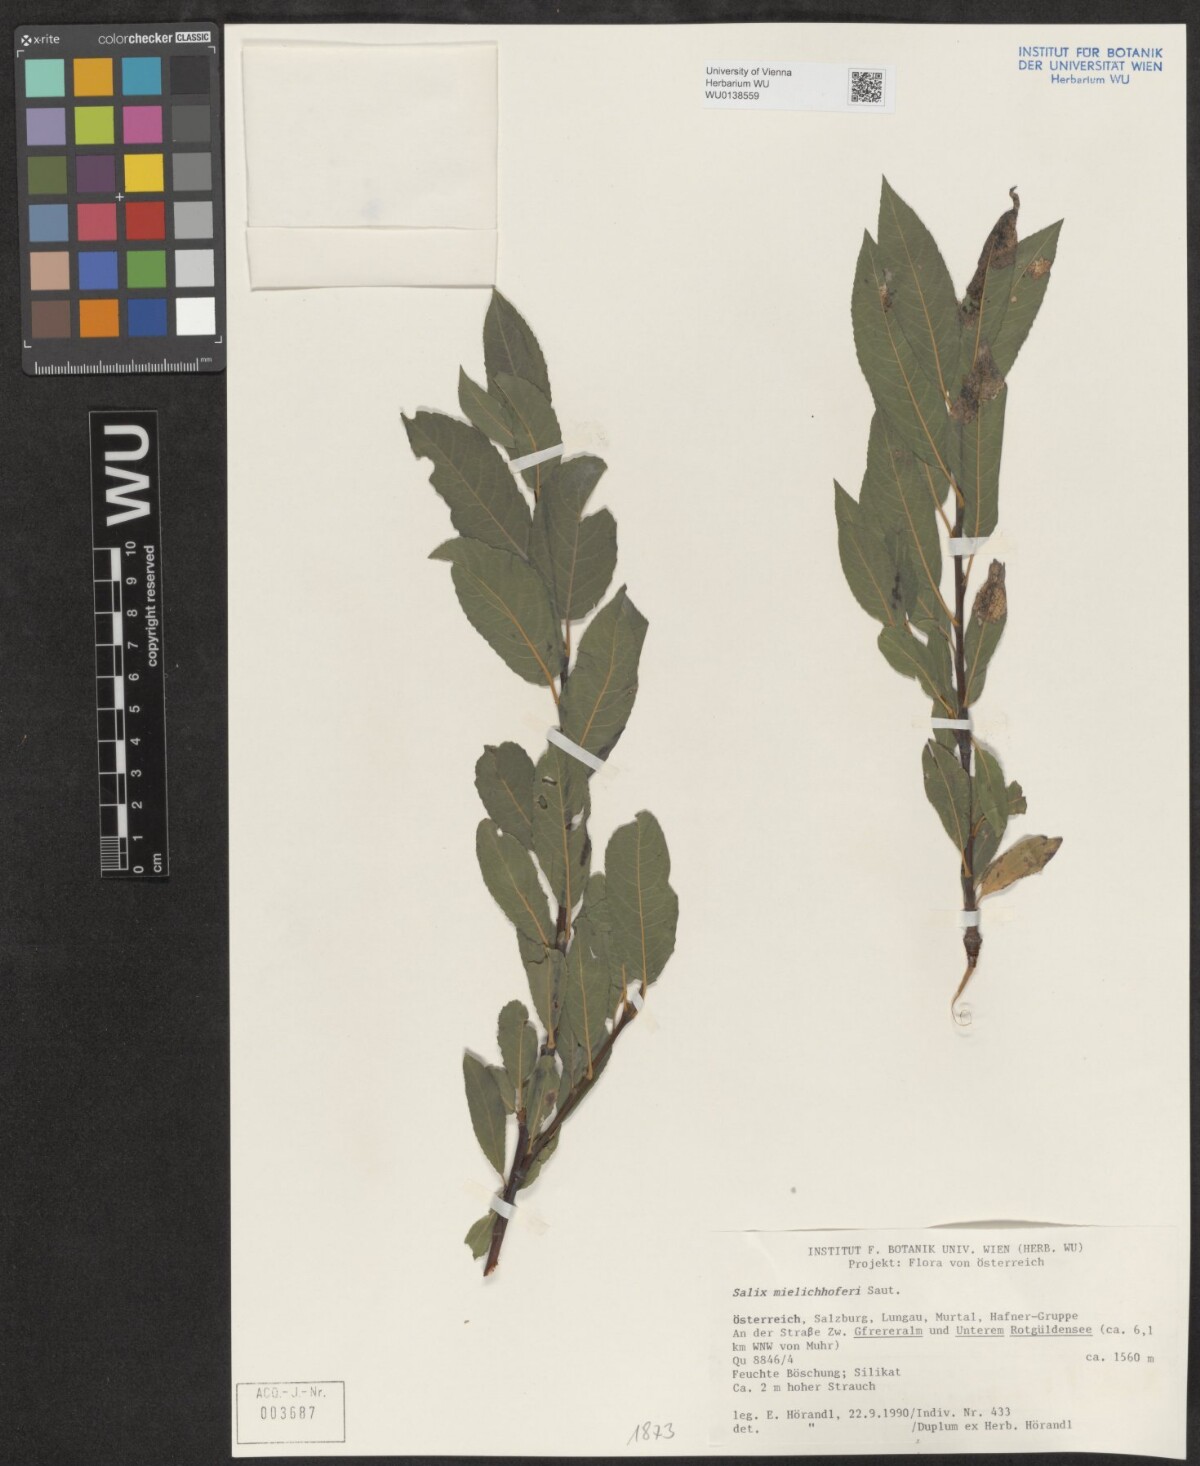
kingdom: Plantae
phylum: Tracheophyta
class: Magnoliopsida
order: Malpighiales
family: Salicaceae
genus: Salix
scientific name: Salix mielichhoferi
